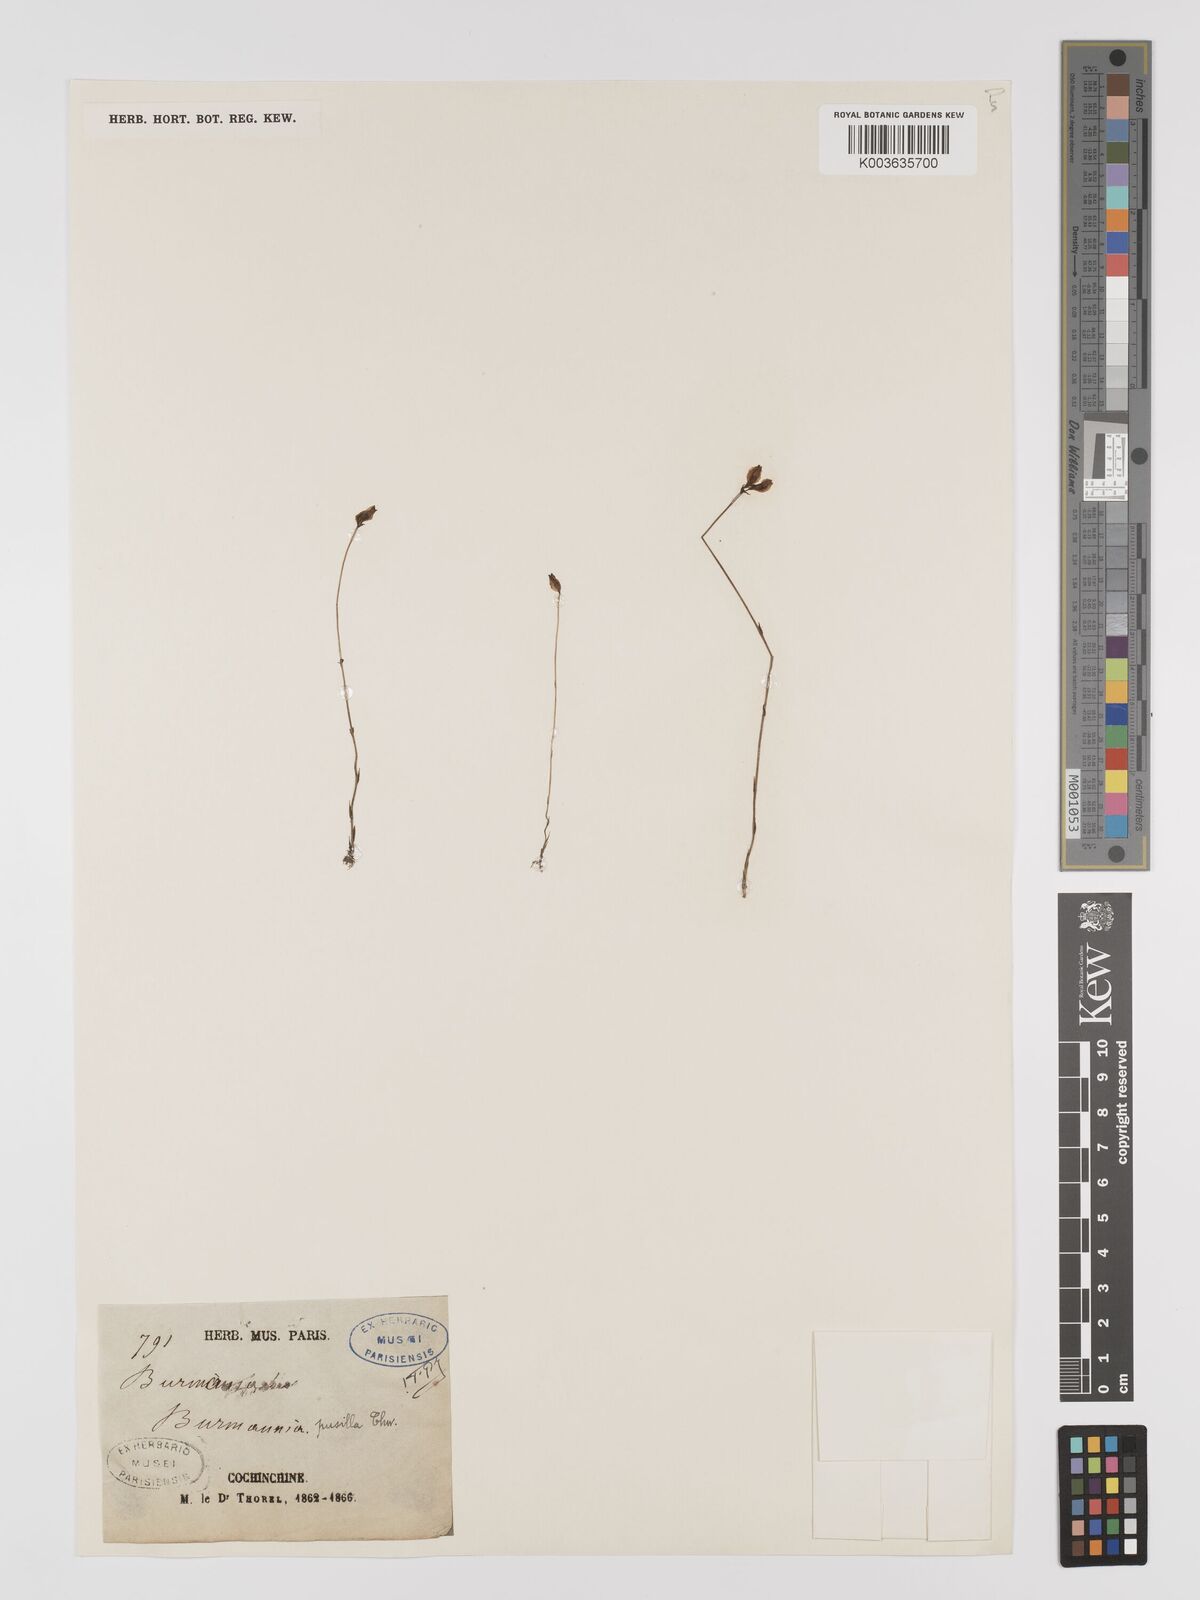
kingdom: Plantae
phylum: Tracheophyta
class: Liliopsida
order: Dioscoreales
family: Burmanniaceae
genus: Burmannia
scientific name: Burmannia pusilla
